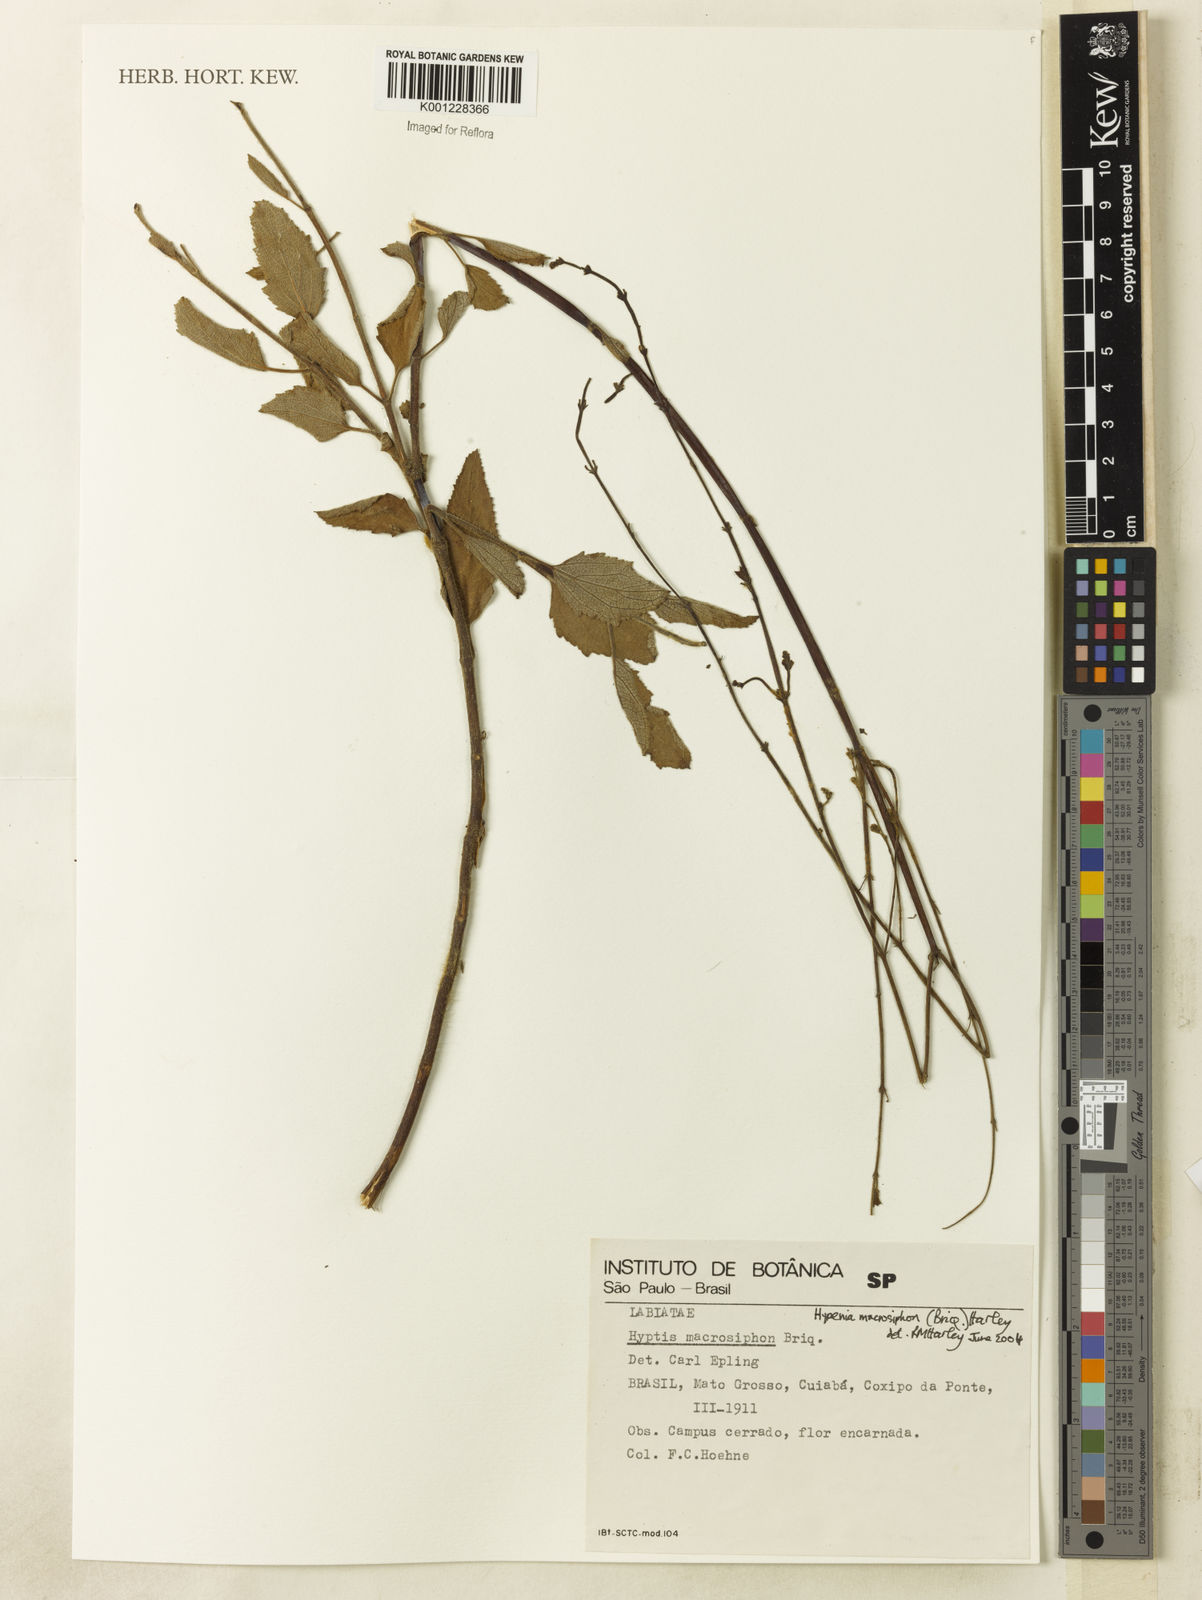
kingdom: Plantae
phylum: Tracheophyta
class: Magnoliopsida
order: Lamiales
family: Lamiaceae
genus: Hypenia
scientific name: Hypenia macrosiphon
